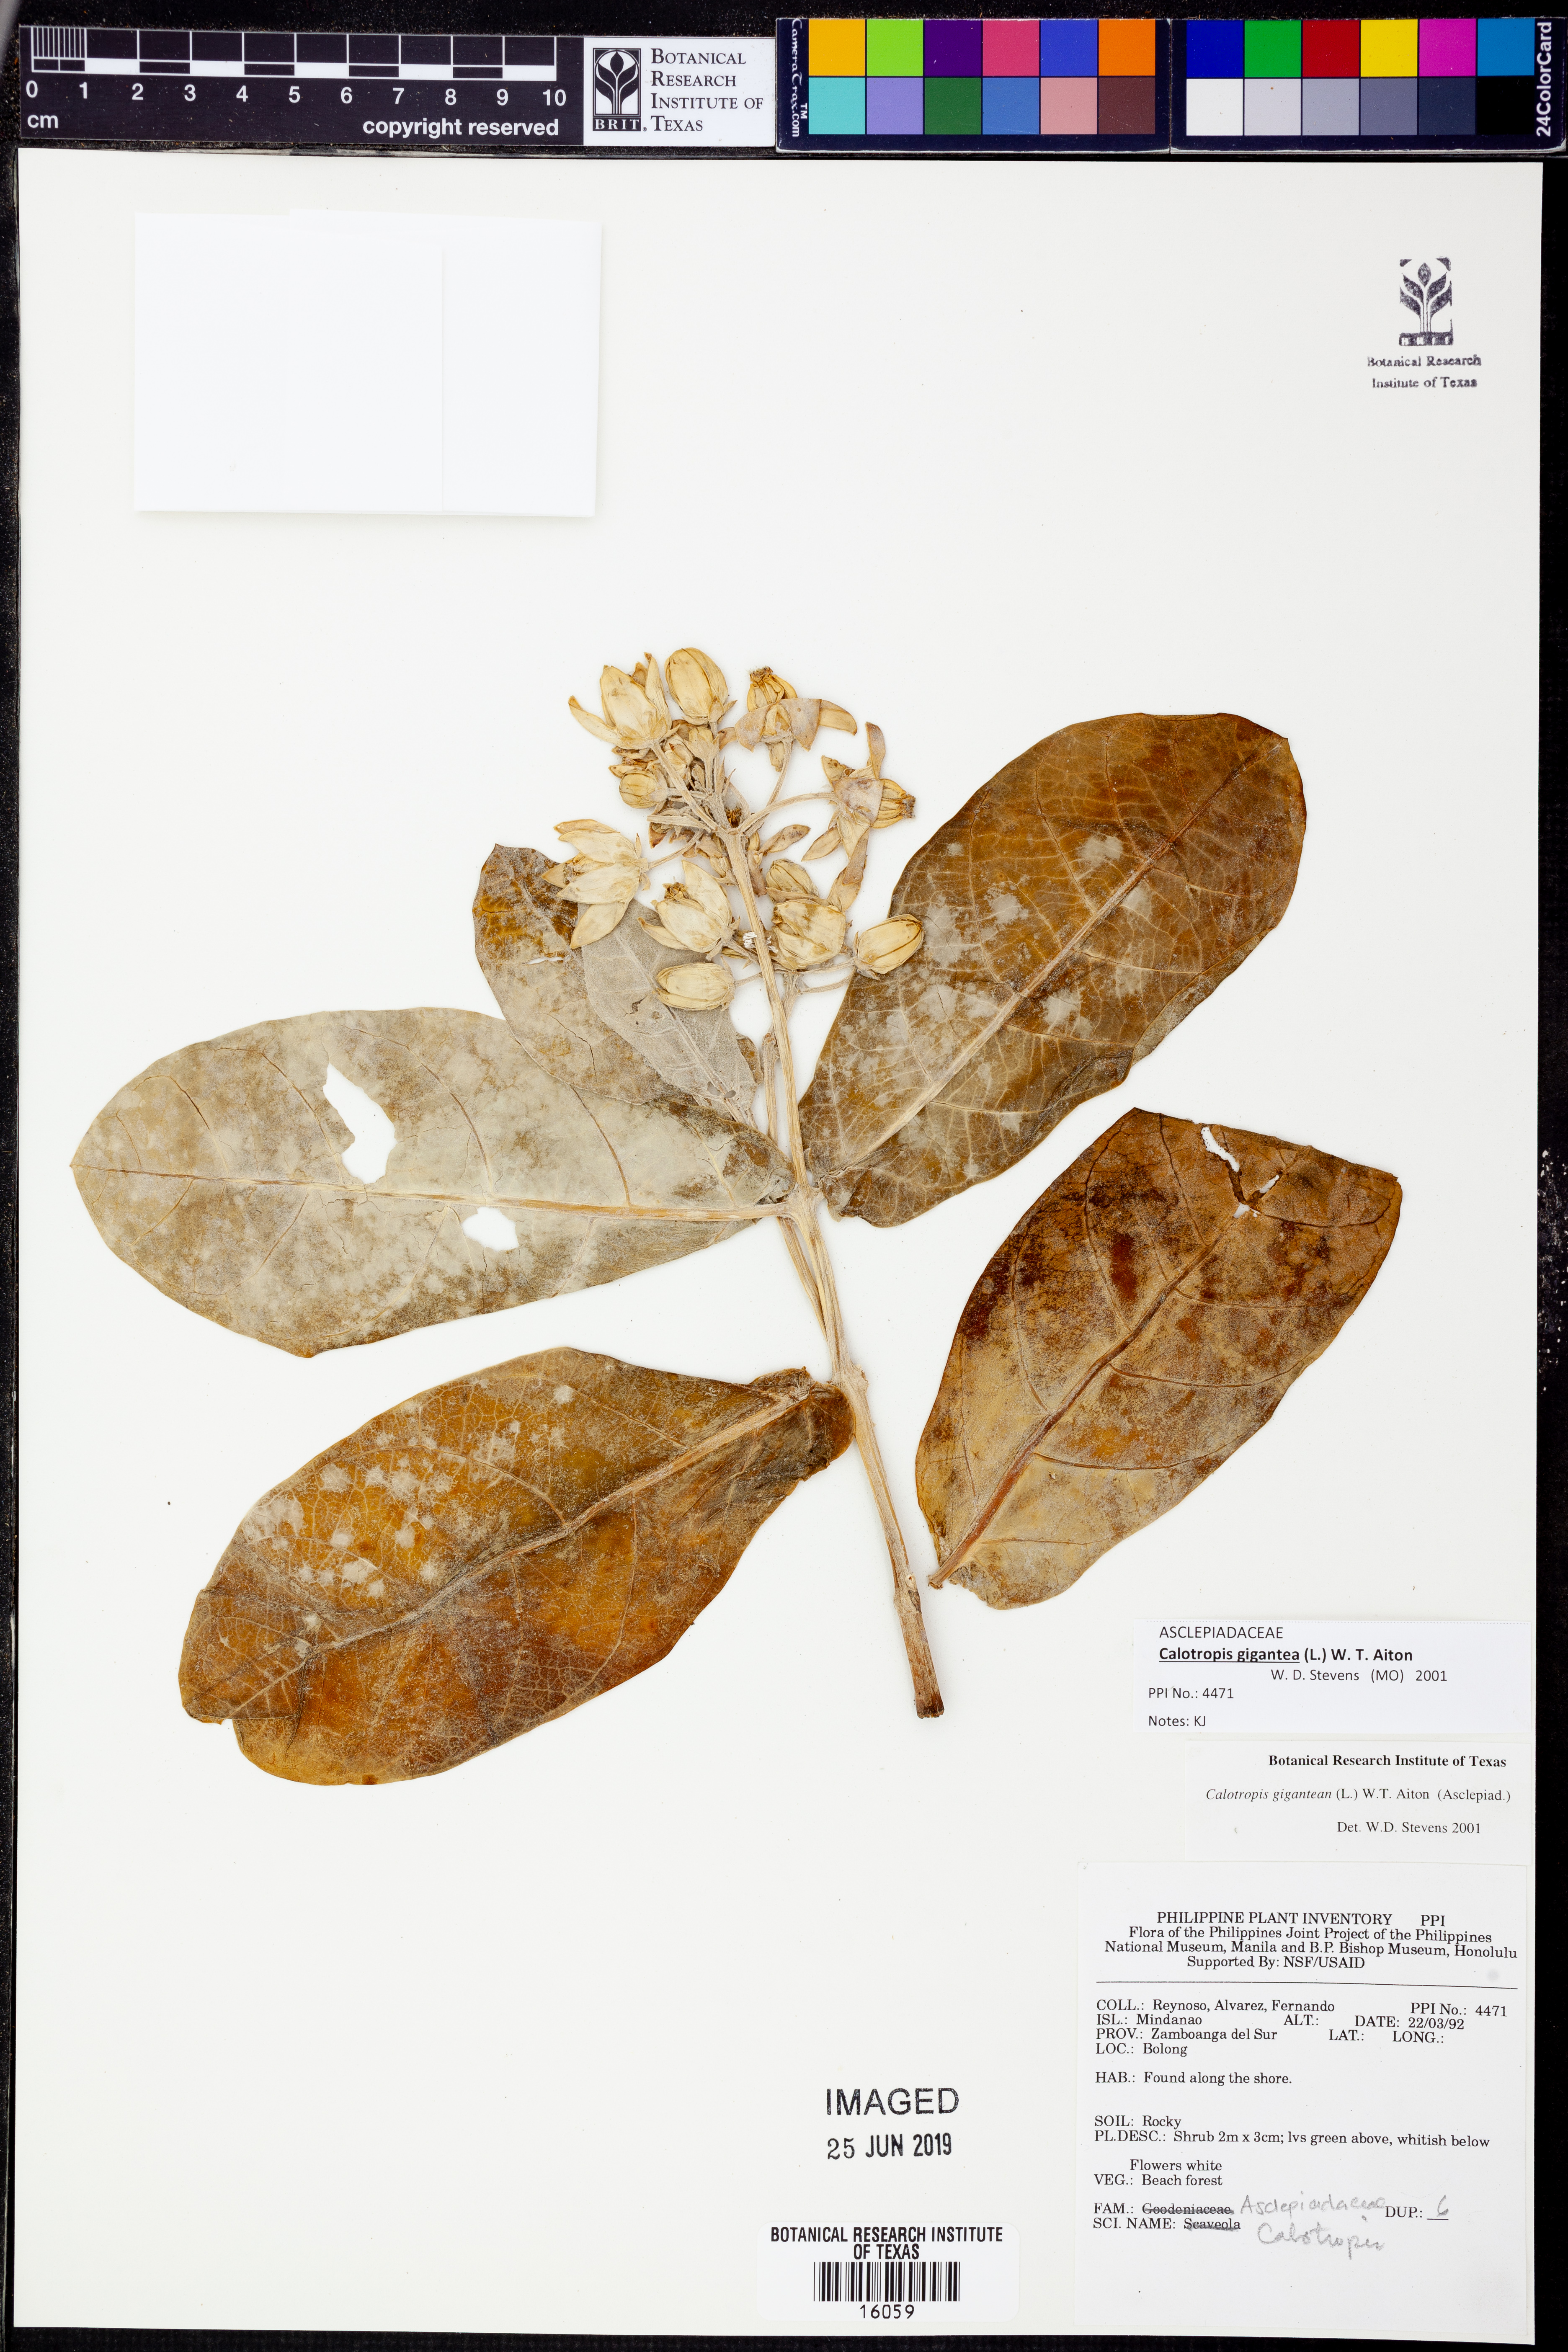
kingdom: Plantae
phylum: Tracheophyta
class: Magnoliopsida
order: Gentianales
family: Apocynaceae
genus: Calotropis
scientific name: Calotropis gigantea
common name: Crown flower
